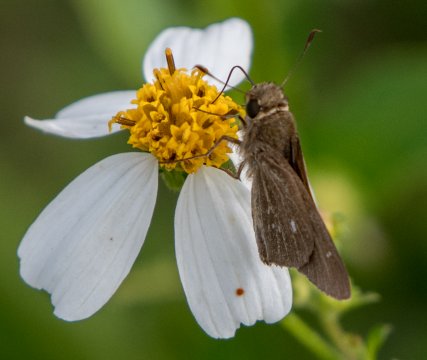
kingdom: Animalia
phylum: Arthropoda
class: Insecta
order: Lepidoptera
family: Hesperiidae
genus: Panoquina
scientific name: Panoquina panoquinoides
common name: Obscure Skipper
